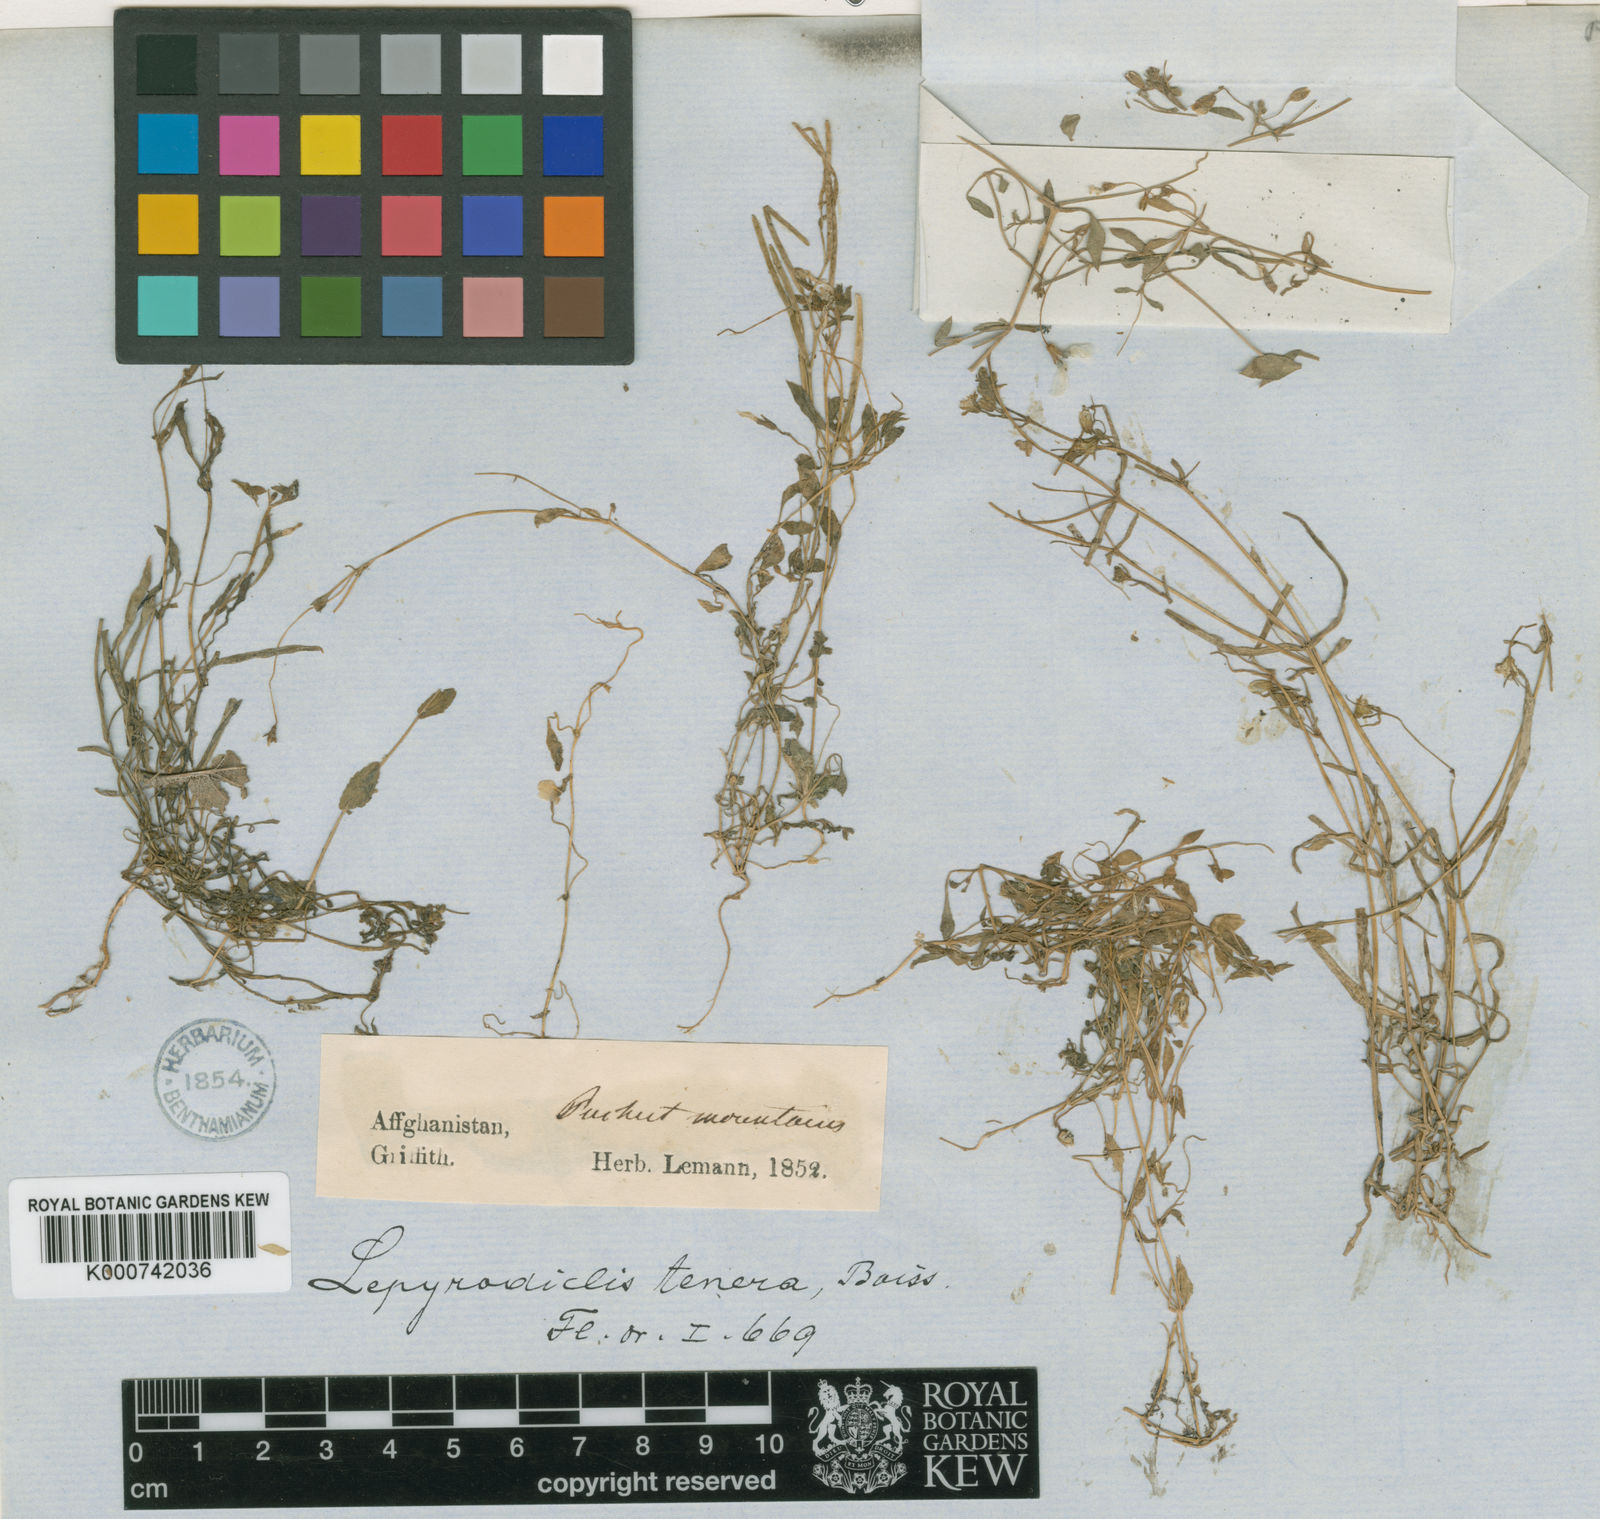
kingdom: Plantae
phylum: Tracheophyta
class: Magnoliopsida
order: Caryophyllales
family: Caryophyllaceae
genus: Lepyrodiclis
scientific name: Lepyrodiclis tenera
